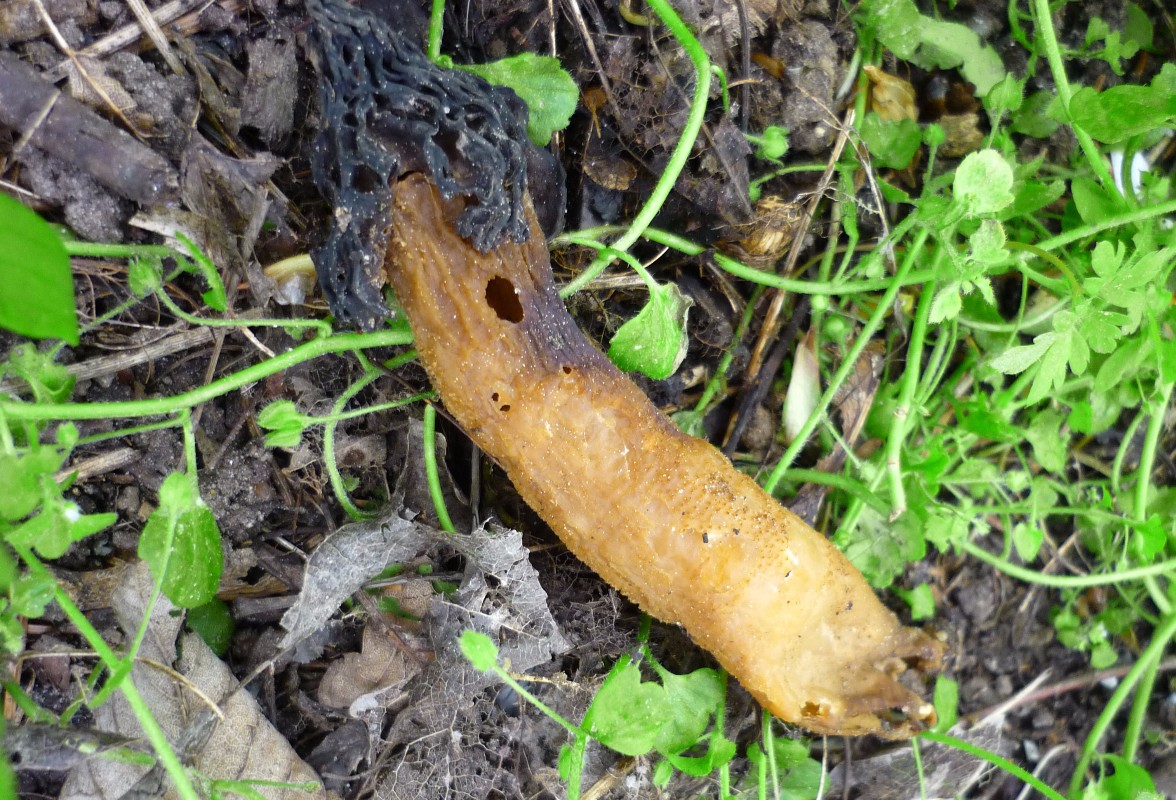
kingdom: Fungi
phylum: Ascomycota
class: Pezizomycetes
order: Pezizales
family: Morchellaceae
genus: Morchella
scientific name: Morchella semilibera
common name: hætte-morkel
